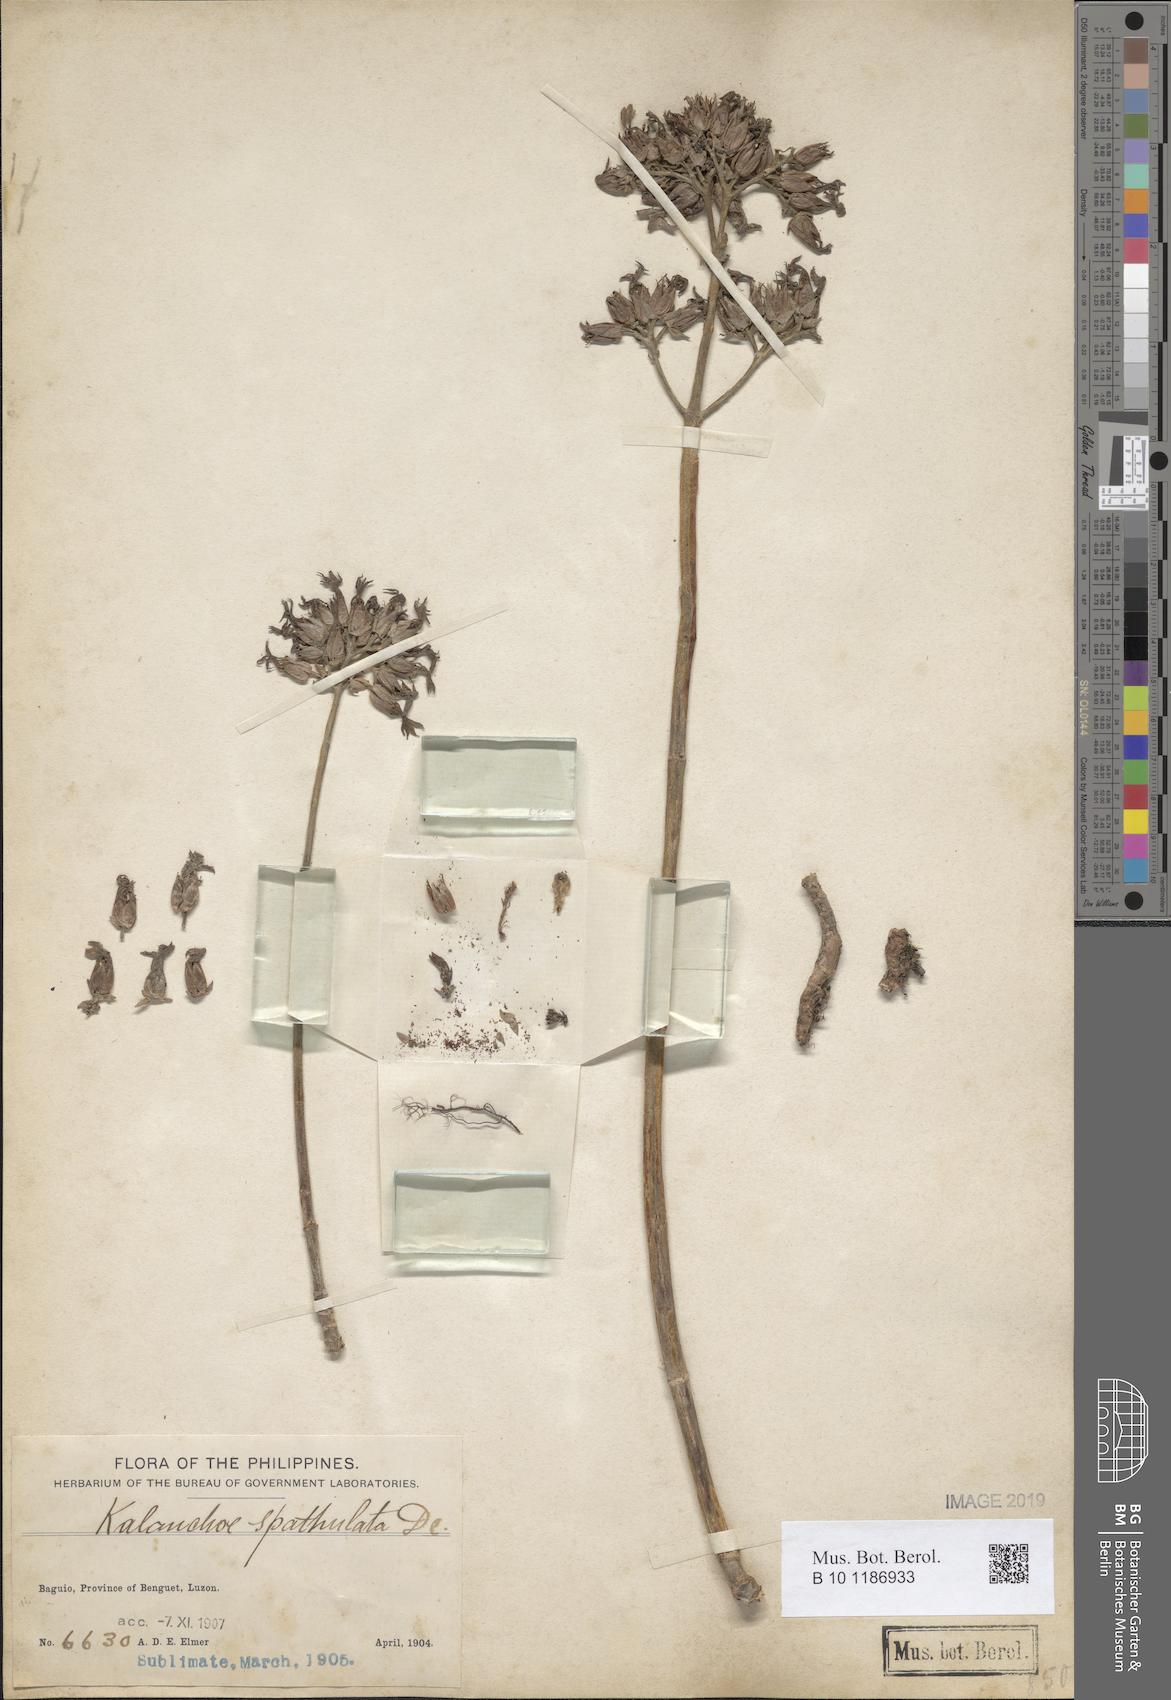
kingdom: Plantae
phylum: Tracheophyta
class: Magnoliopsida
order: Saxifragales
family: Crassulaceae
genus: Kalanchoe
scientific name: Kalanchoe integra
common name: Neverdie
